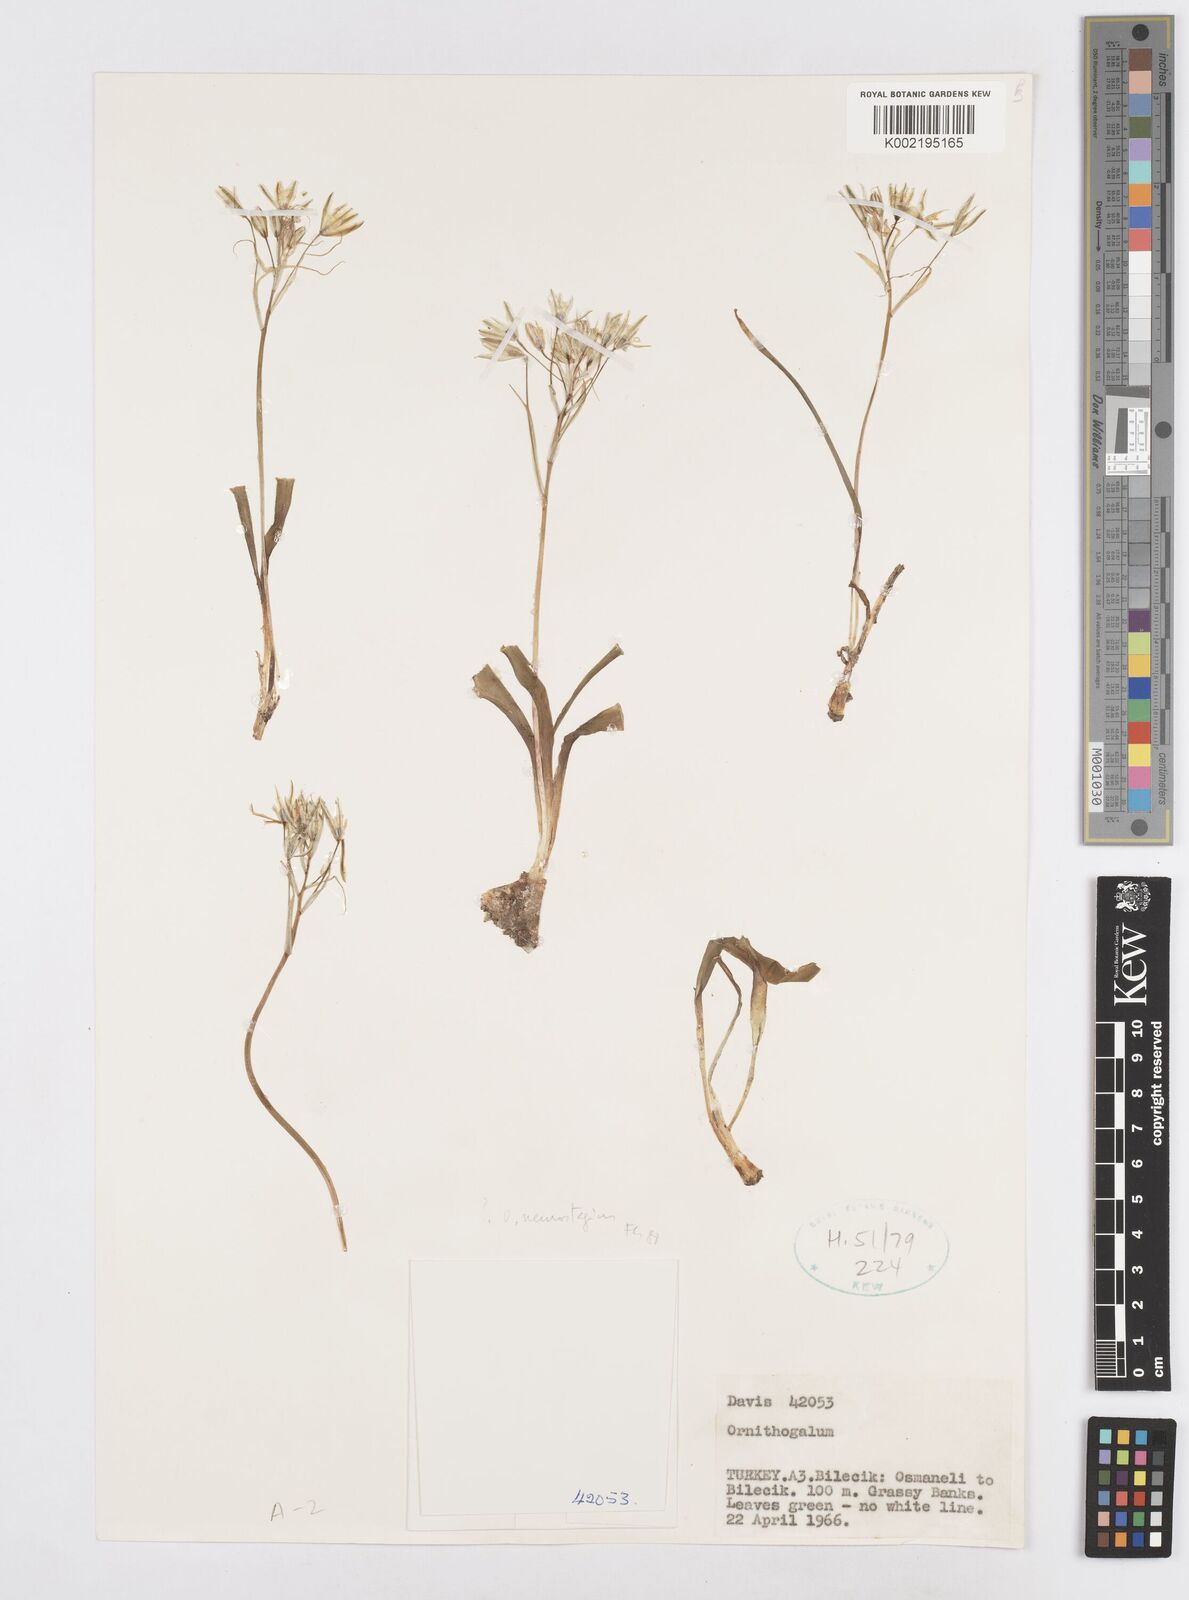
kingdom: Plantae
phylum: Tracheophyta
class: Liliopsida
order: Asparagales
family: Asparagaceae
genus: Ornithogalum
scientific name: Ornithogalum neurostegium
